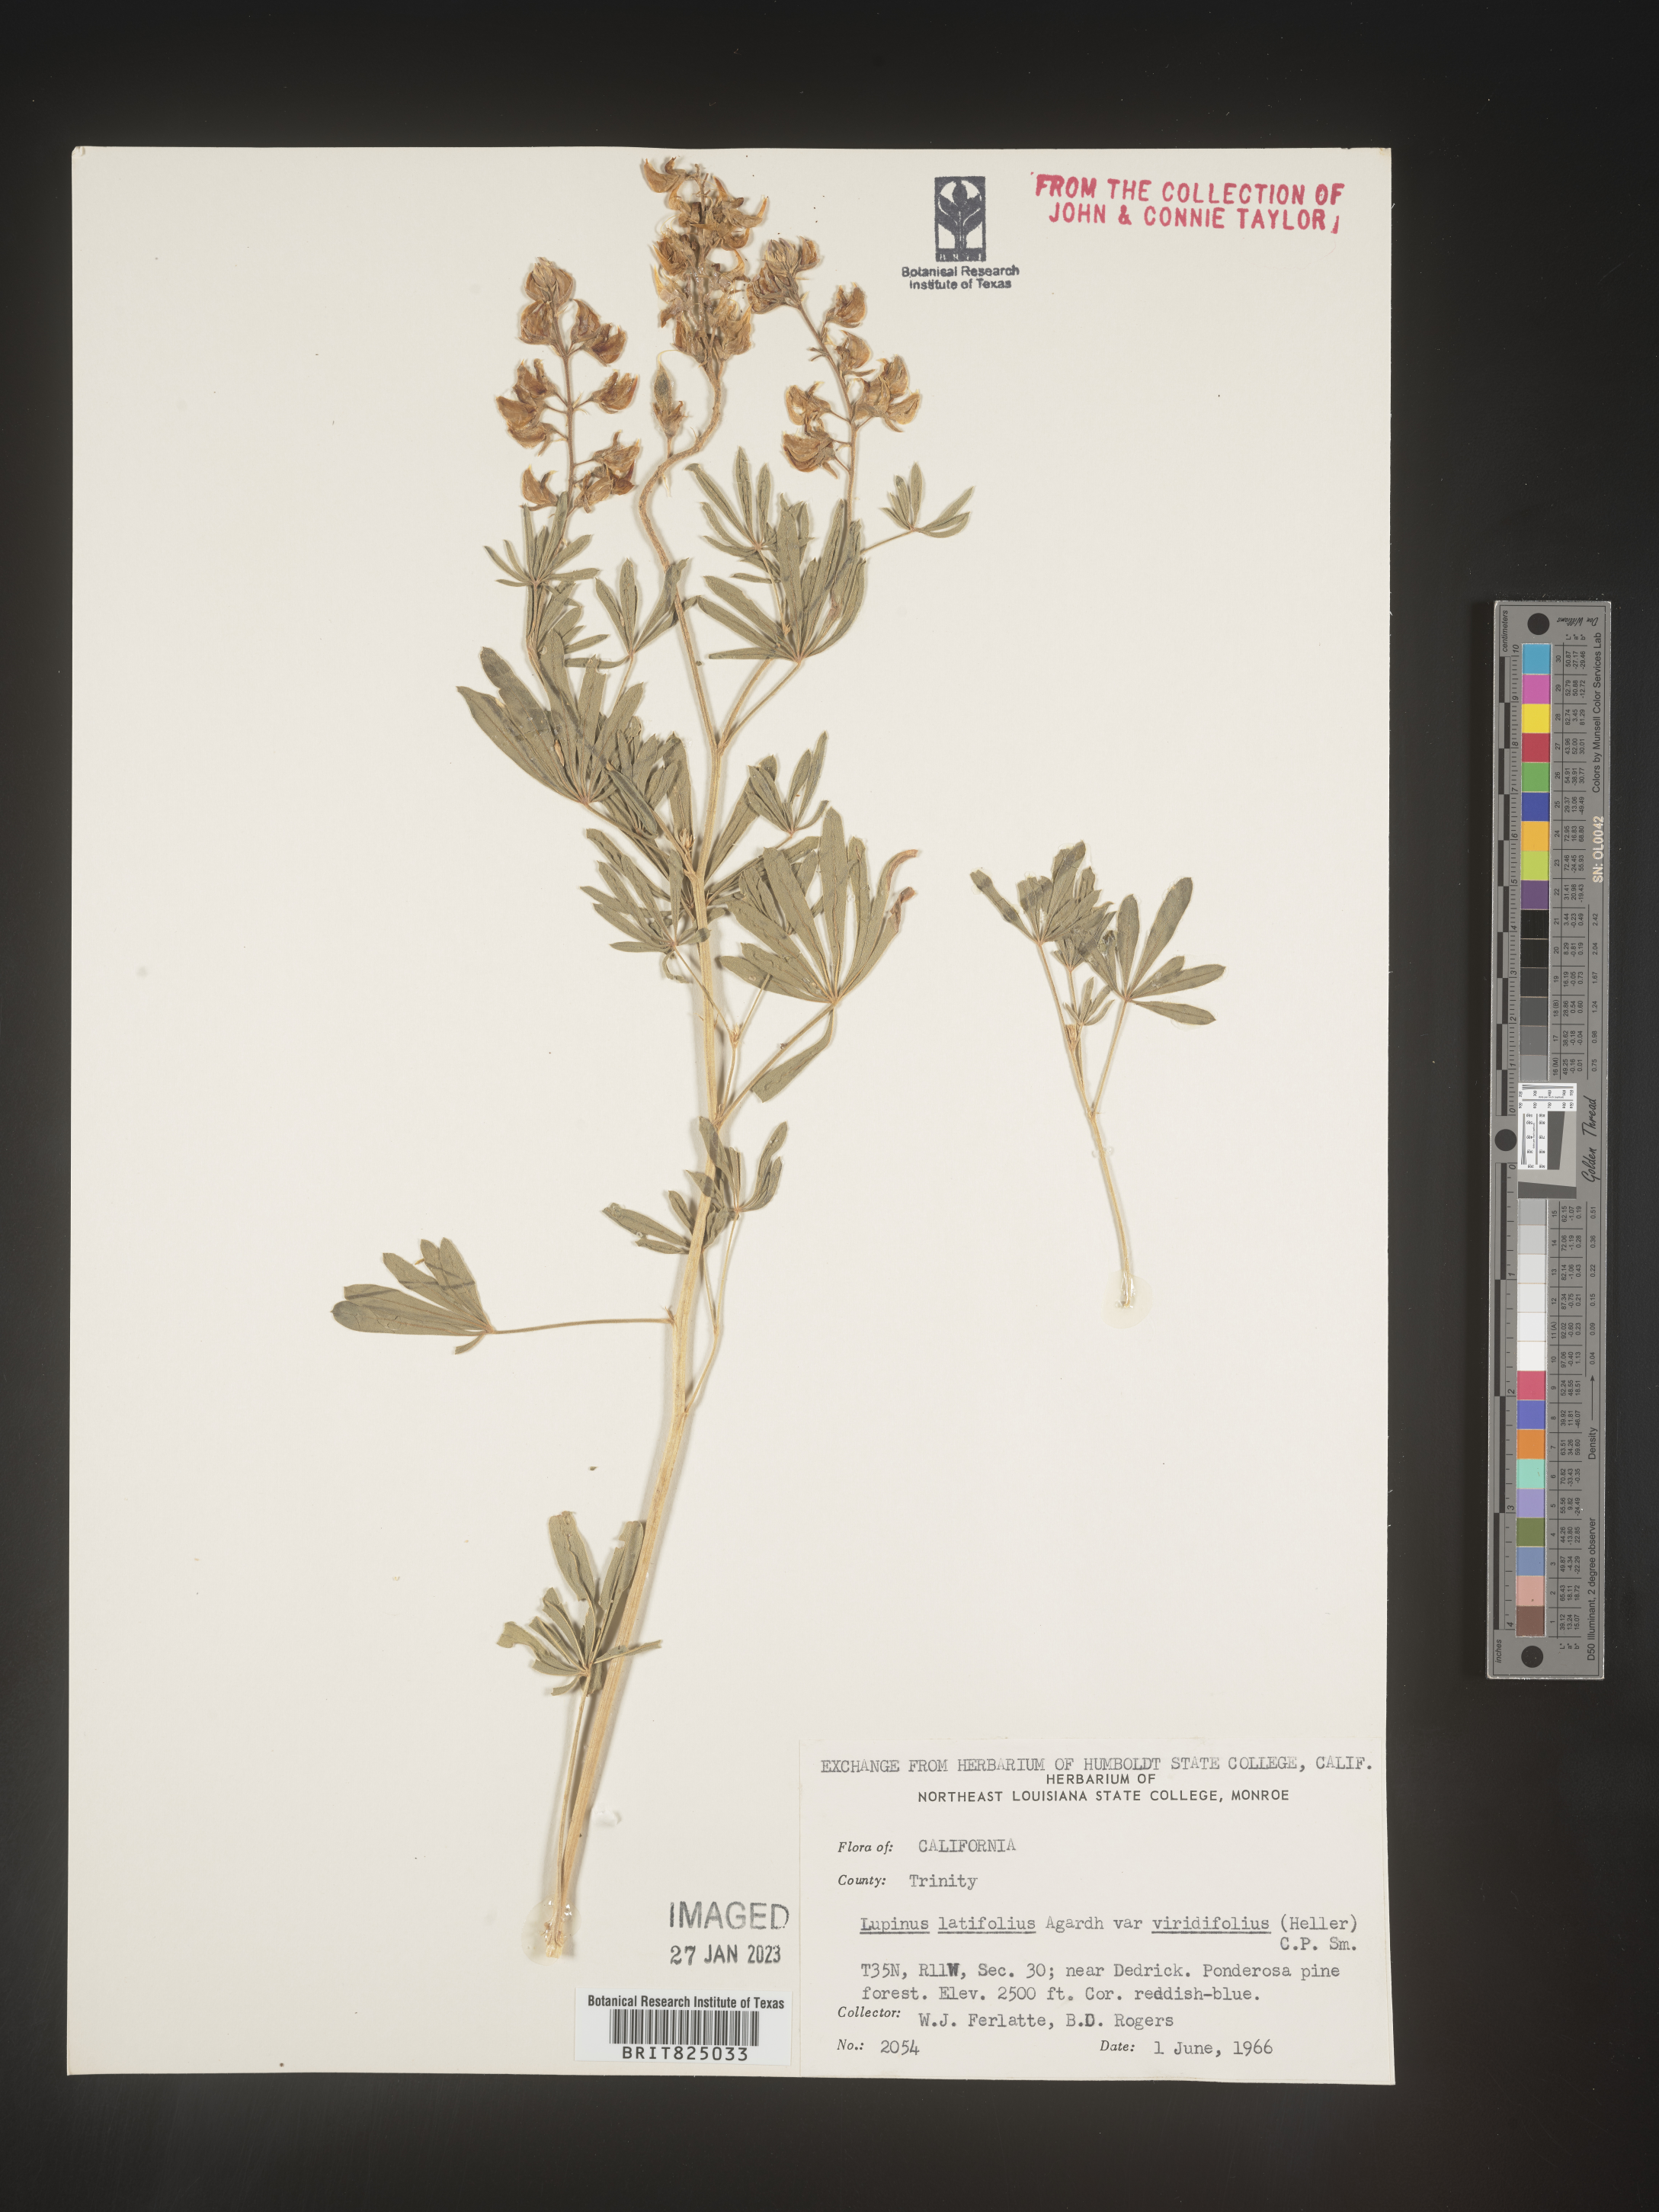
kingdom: Plantae
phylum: Tracheophyta
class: Magnoliopsida
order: Fabales
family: Fabaceae
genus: Lupinus
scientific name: Lupinus
